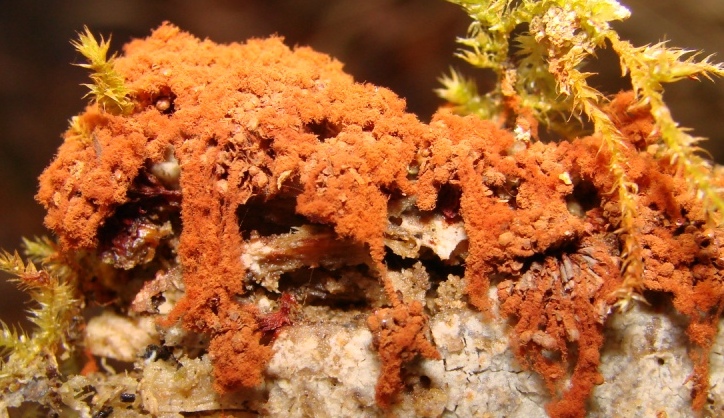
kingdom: Protozoa
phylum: Mycetozoa
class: Myxomycetes
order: Trichiales
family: Trichiaceae
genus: Metatrichia
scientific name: Metatrichia vesparia
